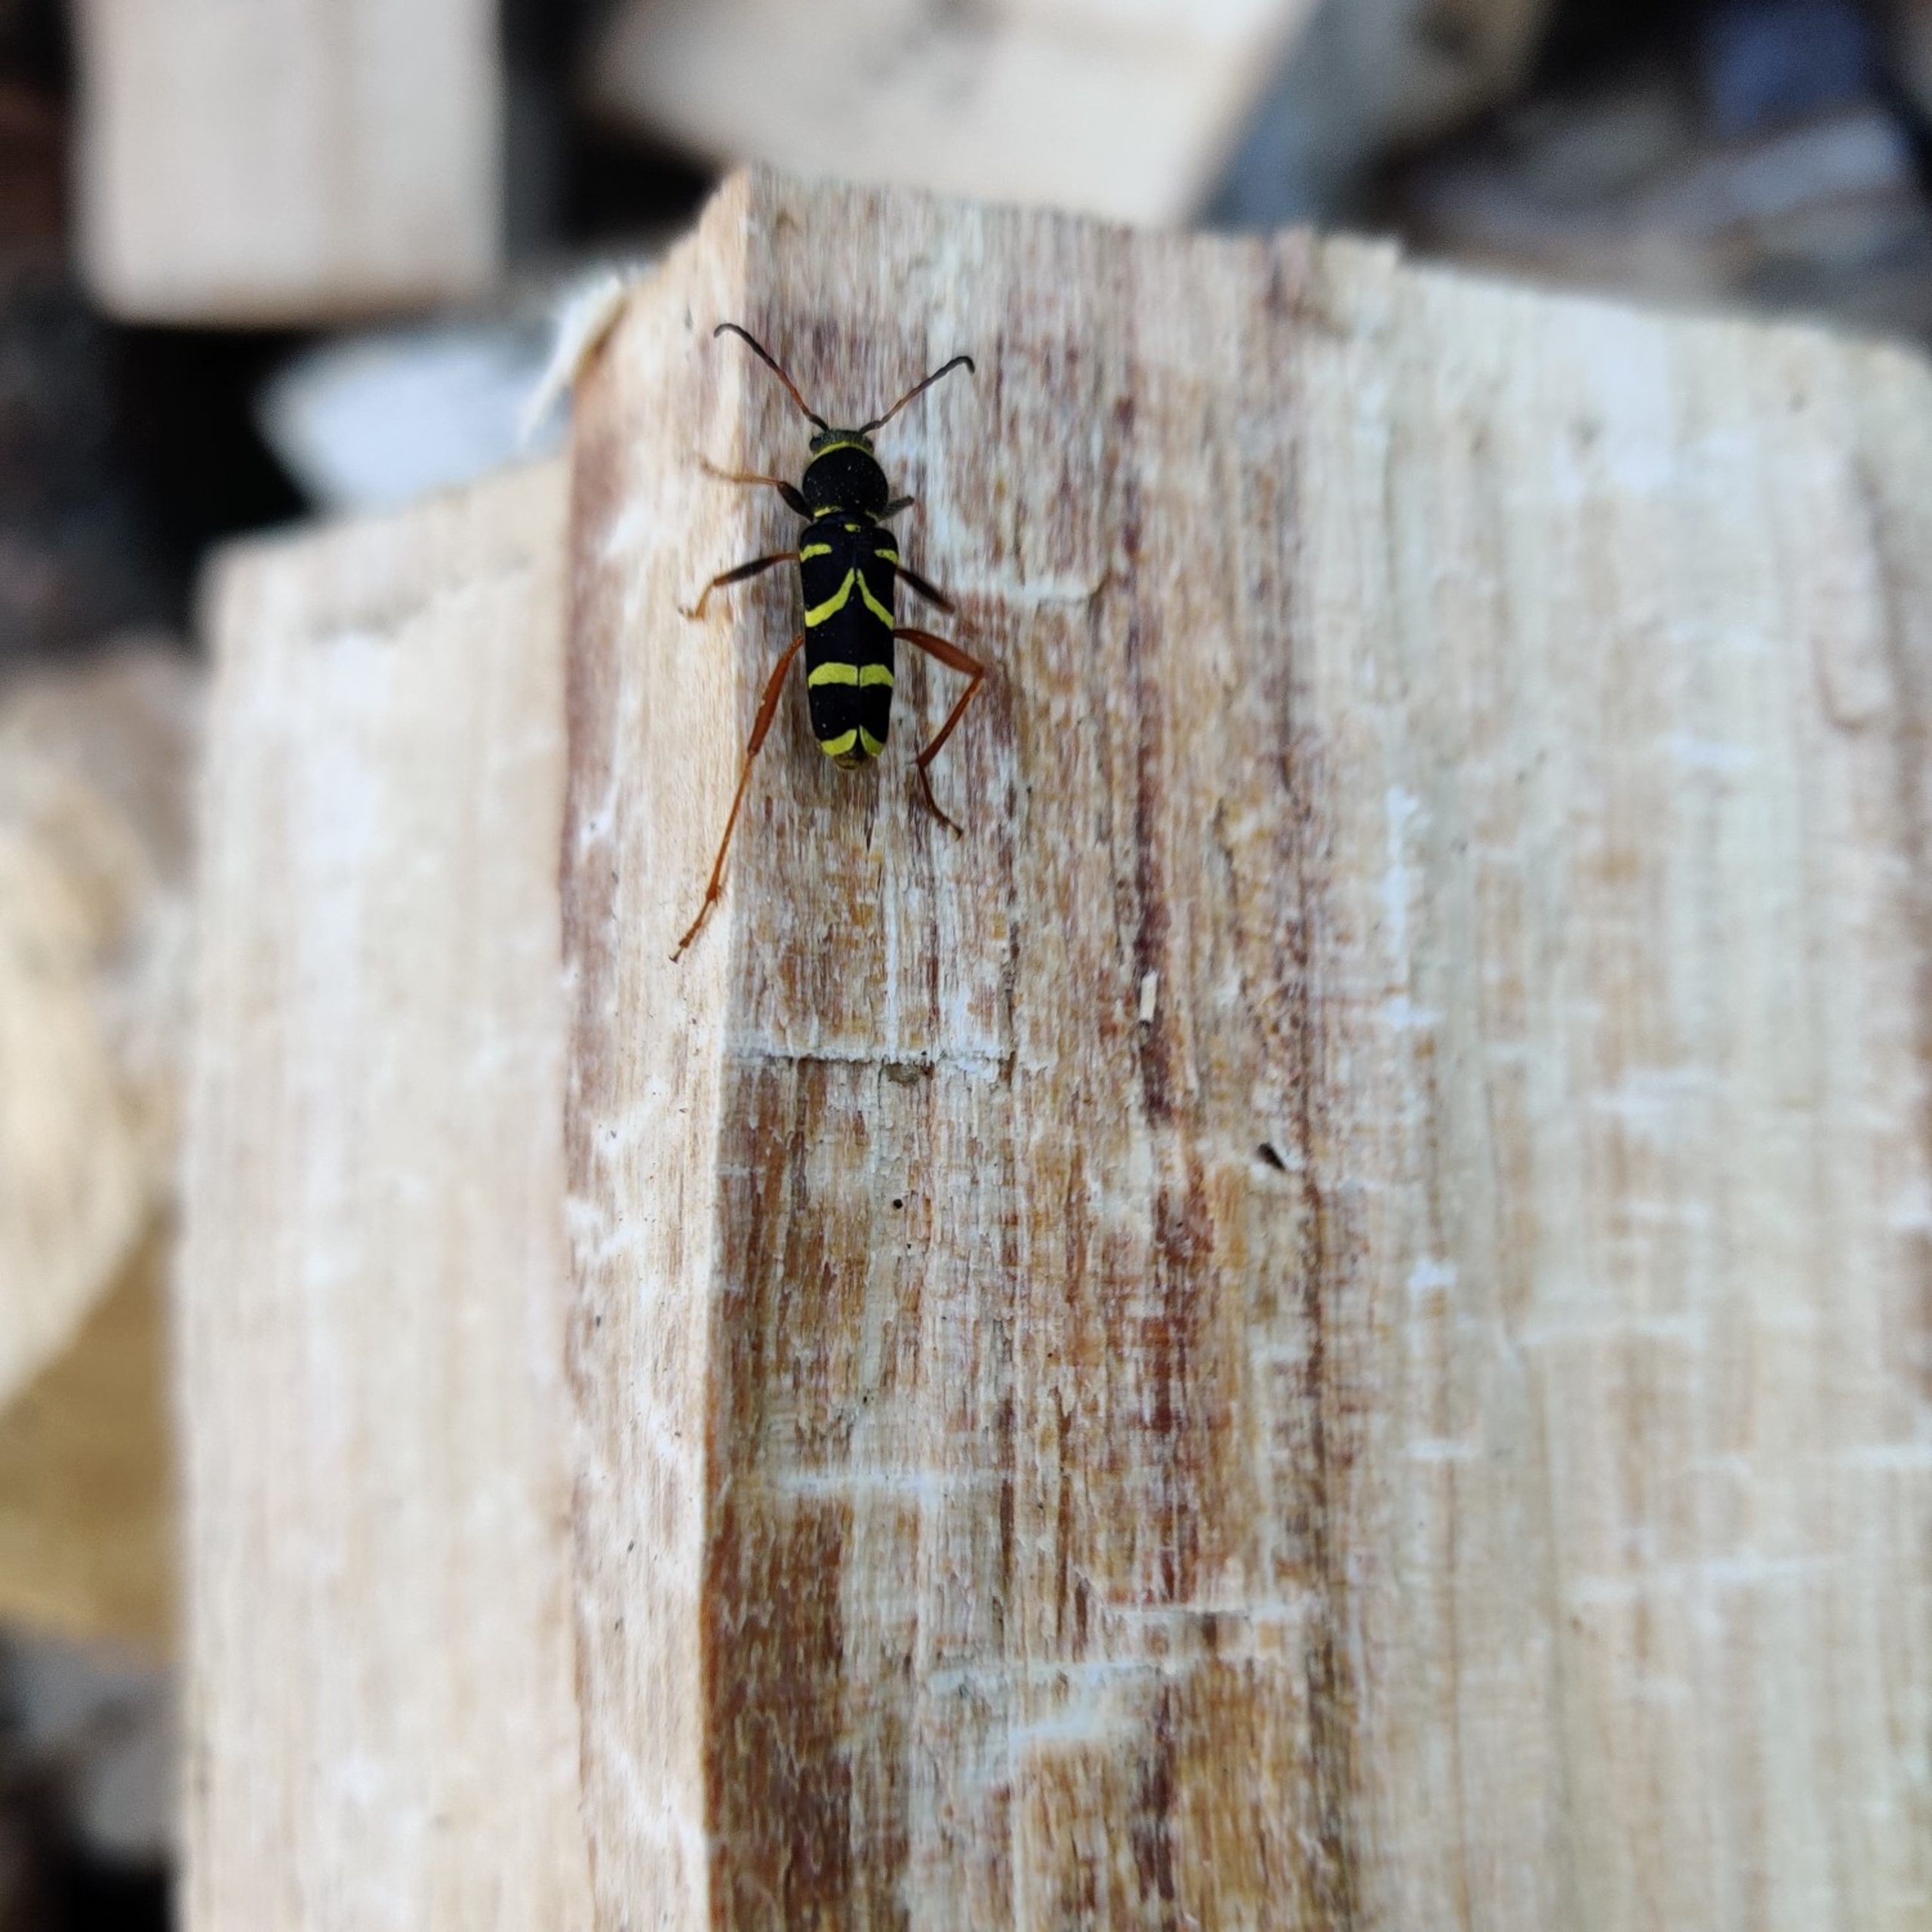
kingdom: Animalia
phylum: Arthropoda
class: Insecta
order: Coleoptera
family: Cerambycidae
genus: Clytus
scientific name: Clytus arietis
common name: Lille hvepsebuk
